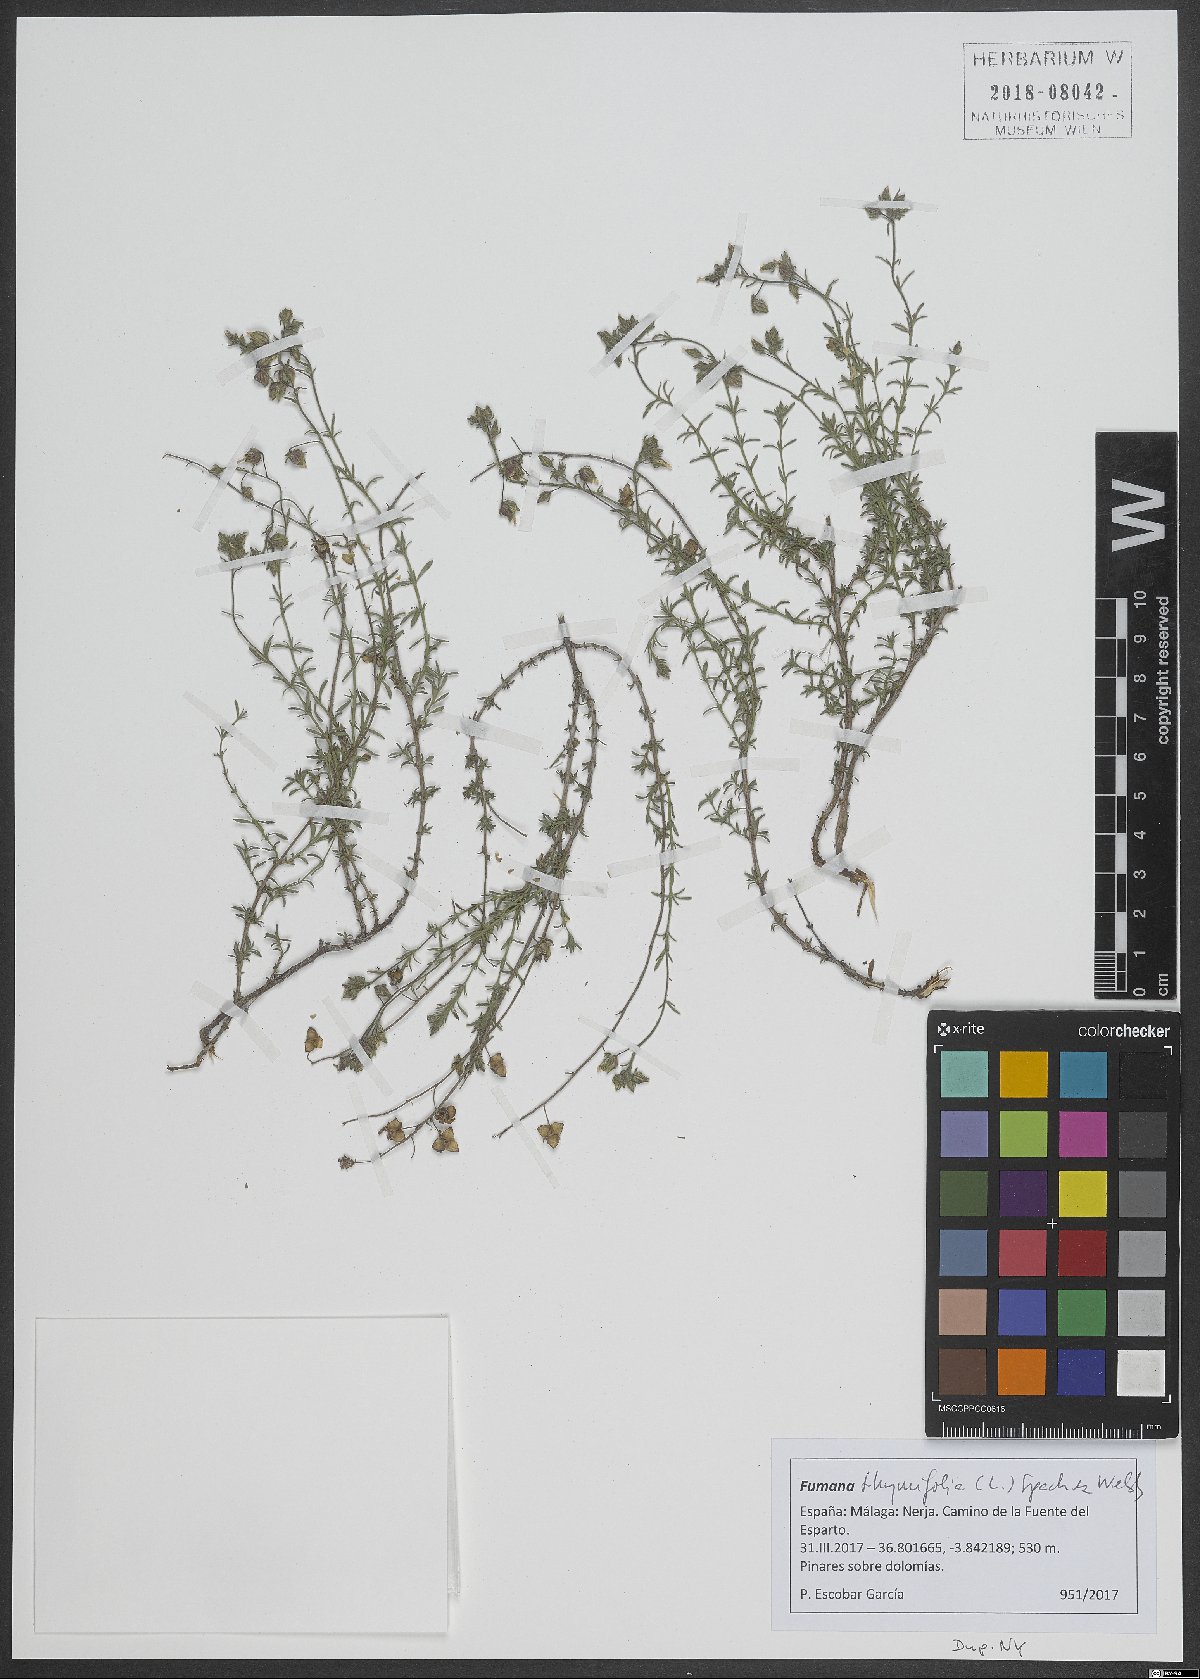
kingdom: Plantae
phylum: Tracheophyta
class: Magnoliopsida
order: Malvales
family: Cistaceae
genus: Fumana
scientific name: Fumana thymifolia
